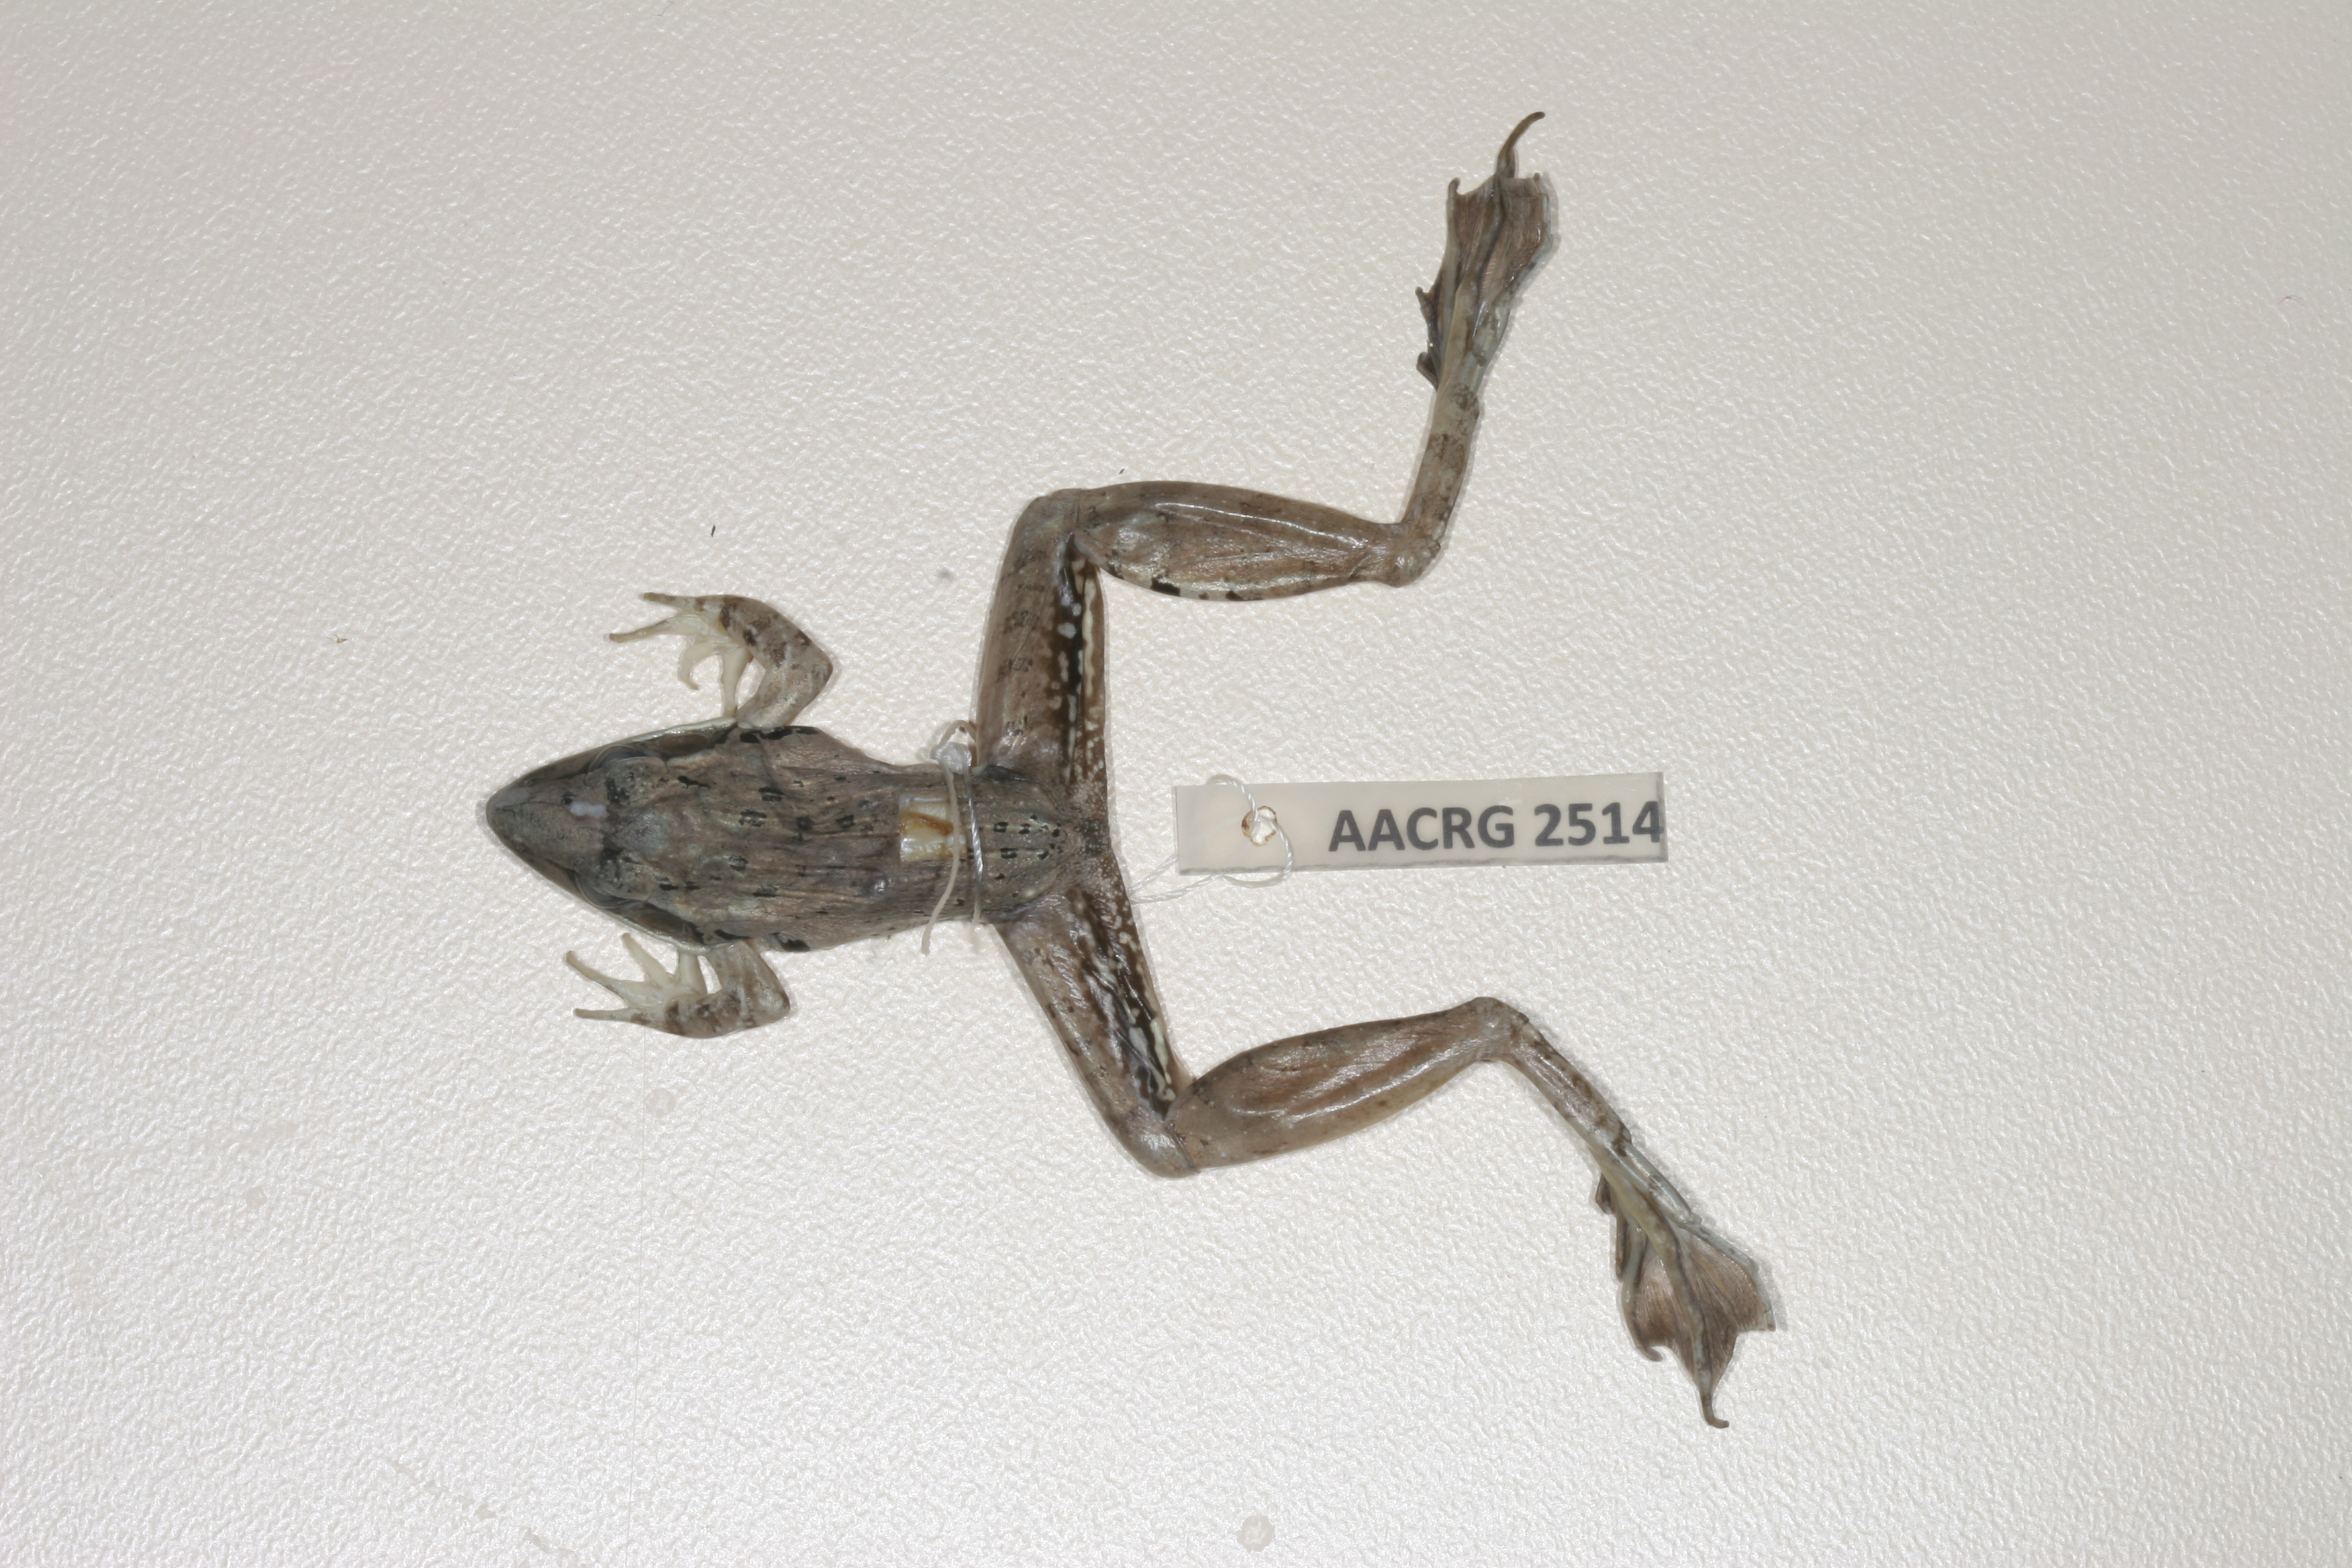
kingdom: Animalia
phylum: Chordata
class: Amphibia
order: Anura
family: Ptychadenidae
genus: Ptychadena
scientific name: Ptychadena anchietae
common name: Anchieta's ridged frog
